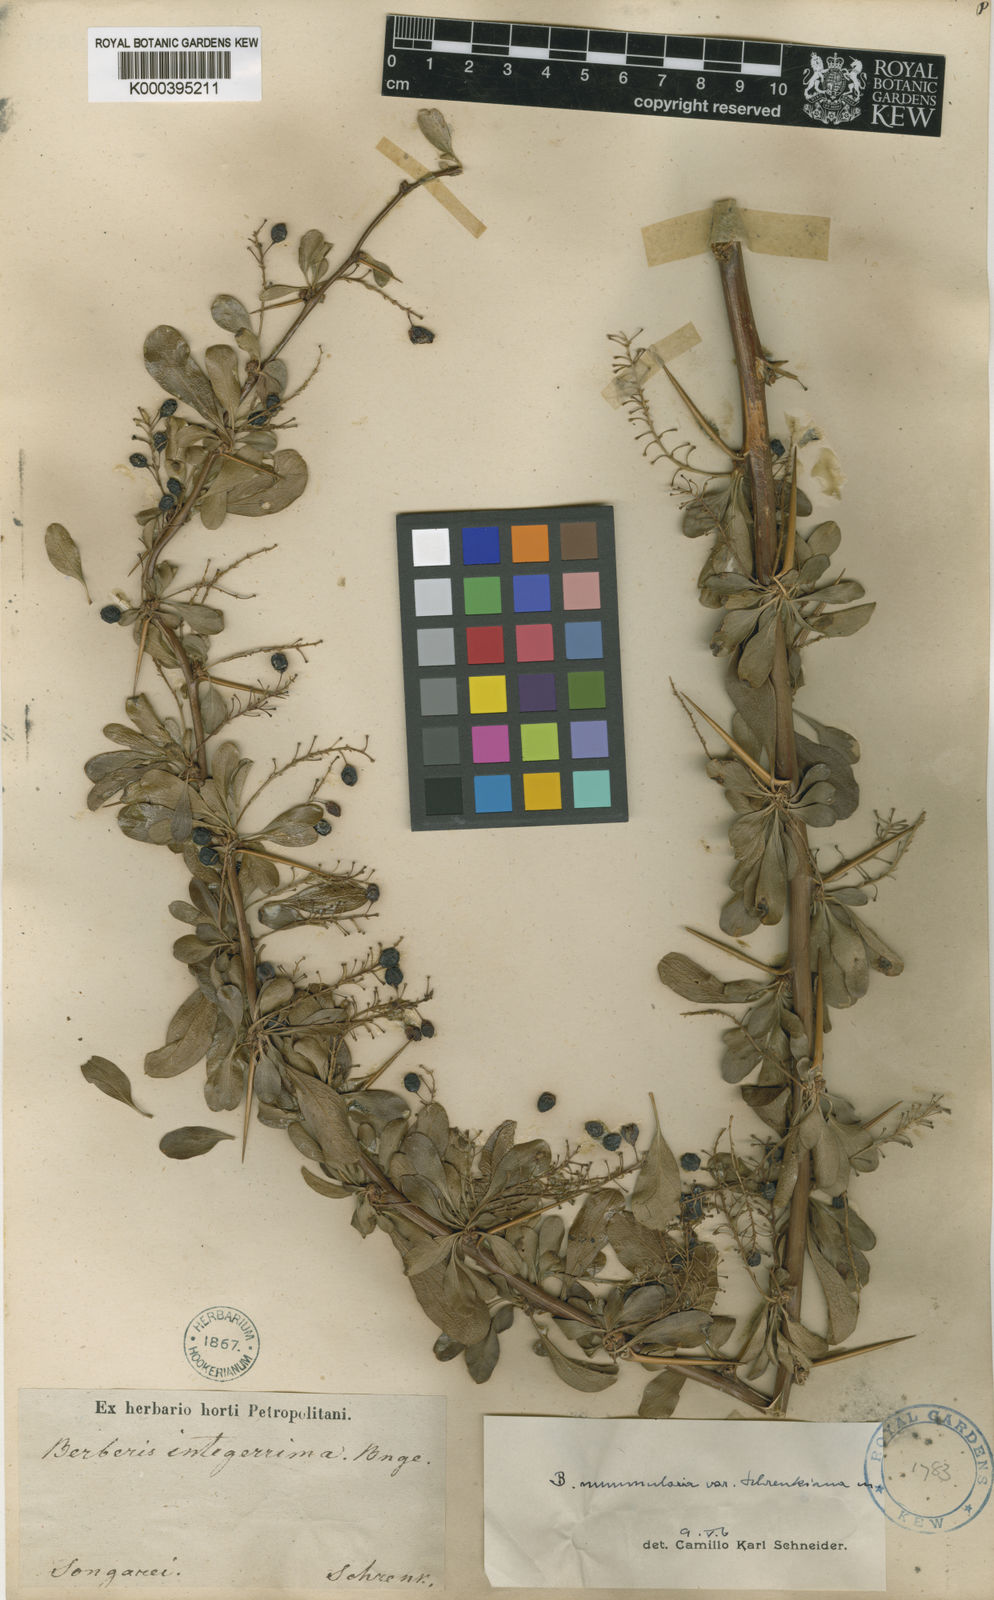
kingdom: Plantae
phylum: Tracheophyta
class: Magnoliopsida
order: Ranunculales
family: Berberidaceae
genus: Berberis
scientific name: Berberis integerrima
